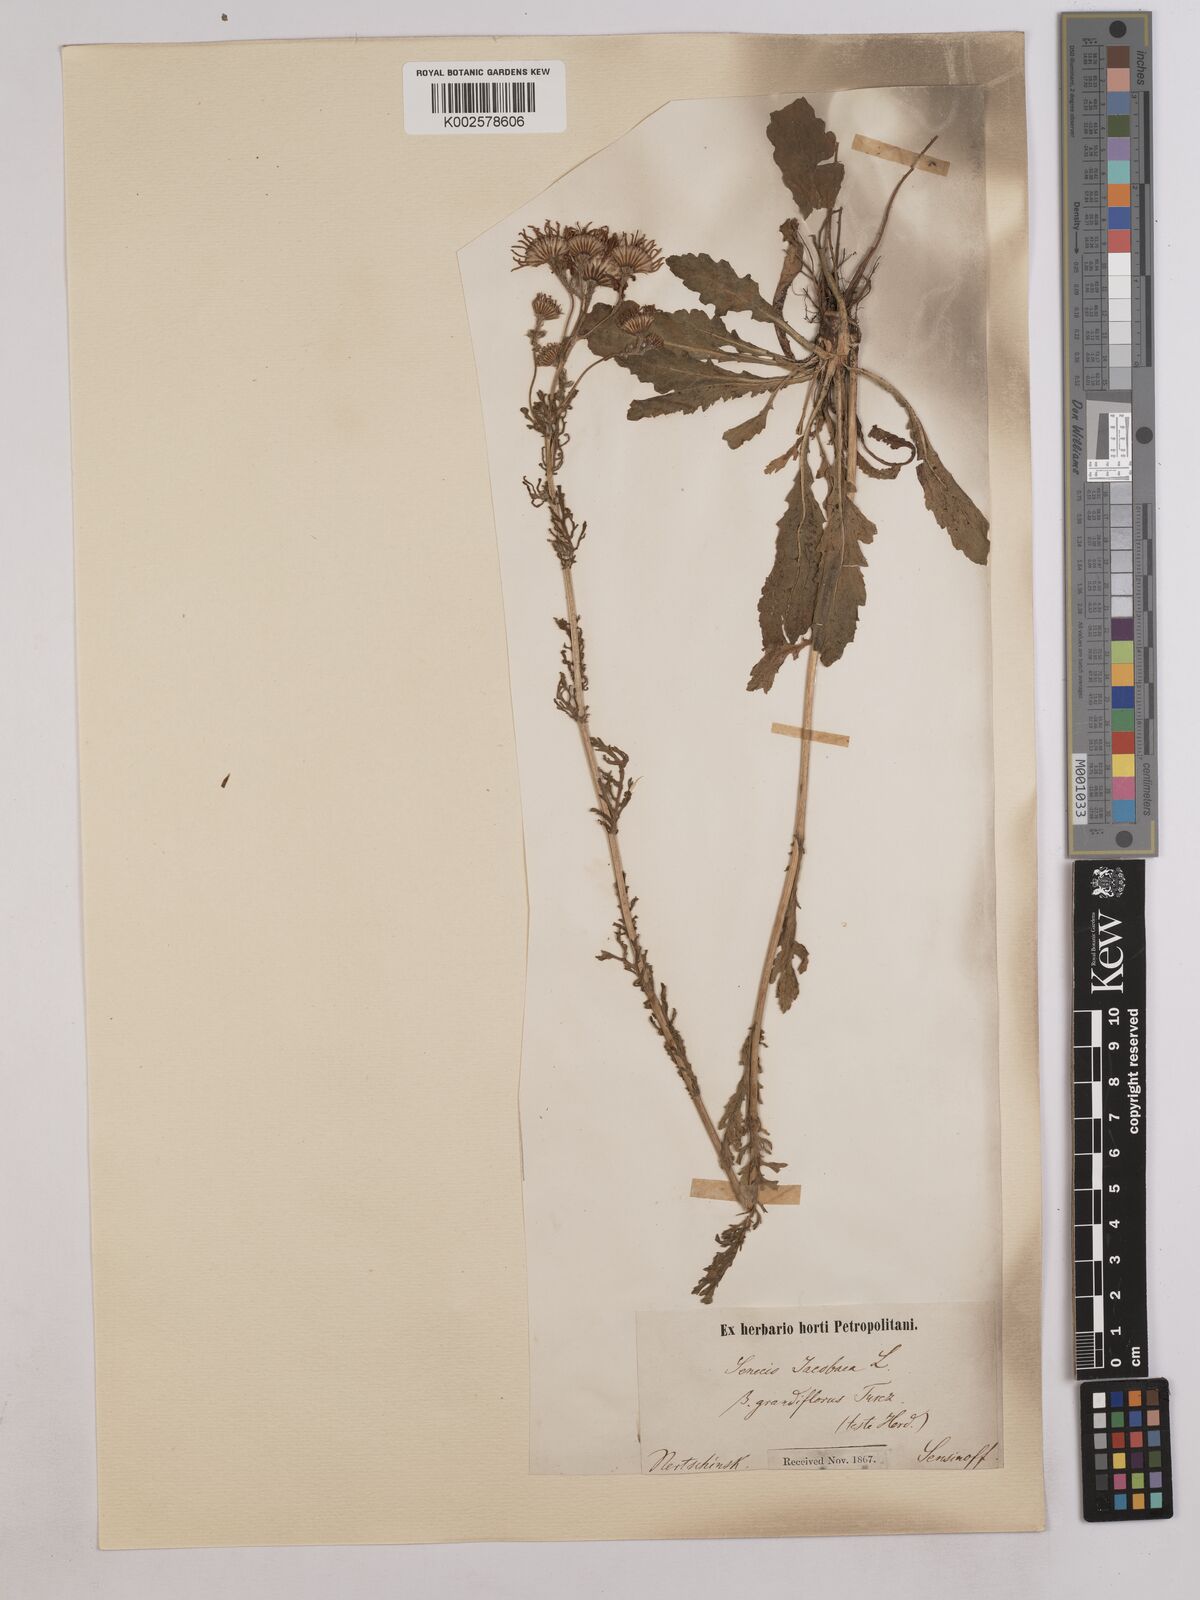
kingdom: Plantae
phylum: Tracheophyta
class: Magnoliopsida
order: Asterales
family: Asteraceae
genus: Jacobaea
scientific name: Jacobaea vulgaris
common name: Stinking willie
